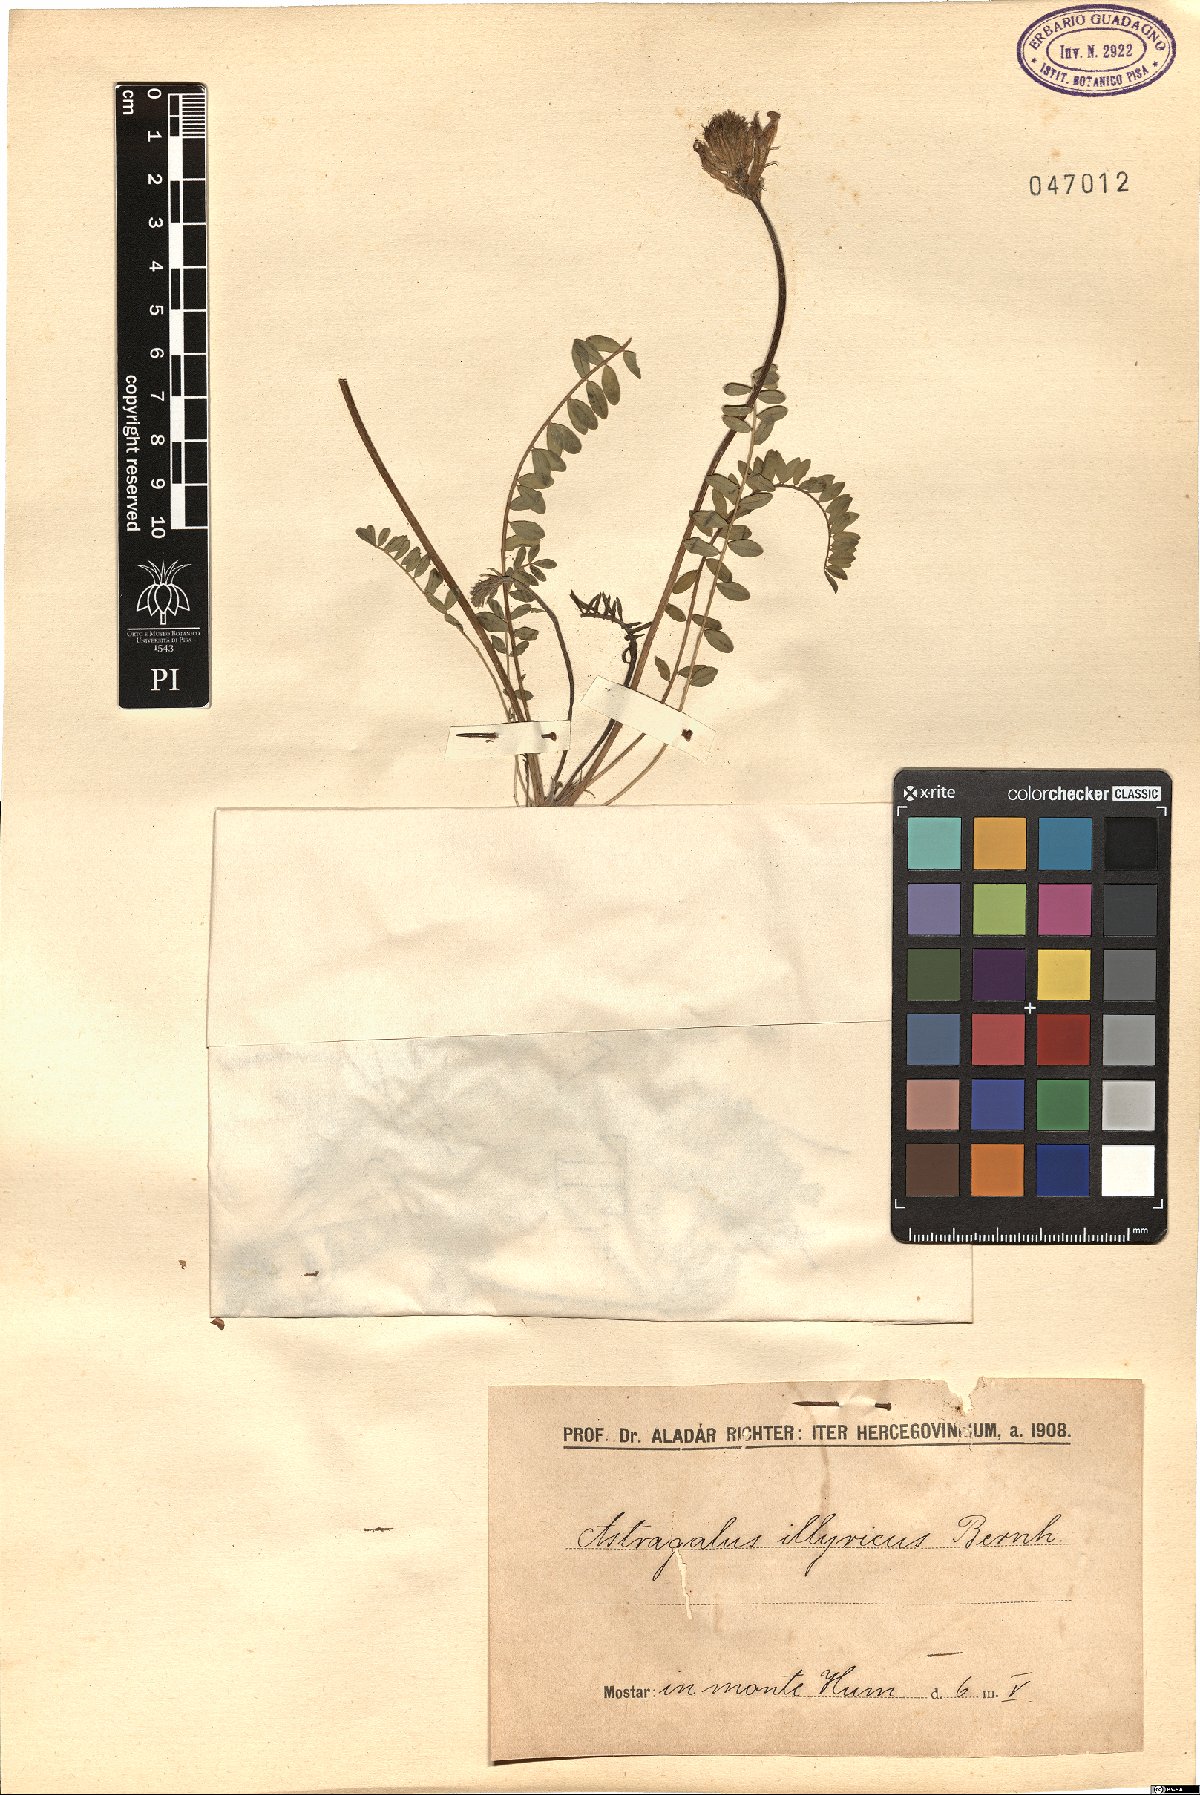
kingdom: Plantae
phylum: Tracheophyta
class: Magnoliopsida
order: Fabales
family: Fabaceae
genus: Astragalus
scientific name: Astragalus monspessulanus
